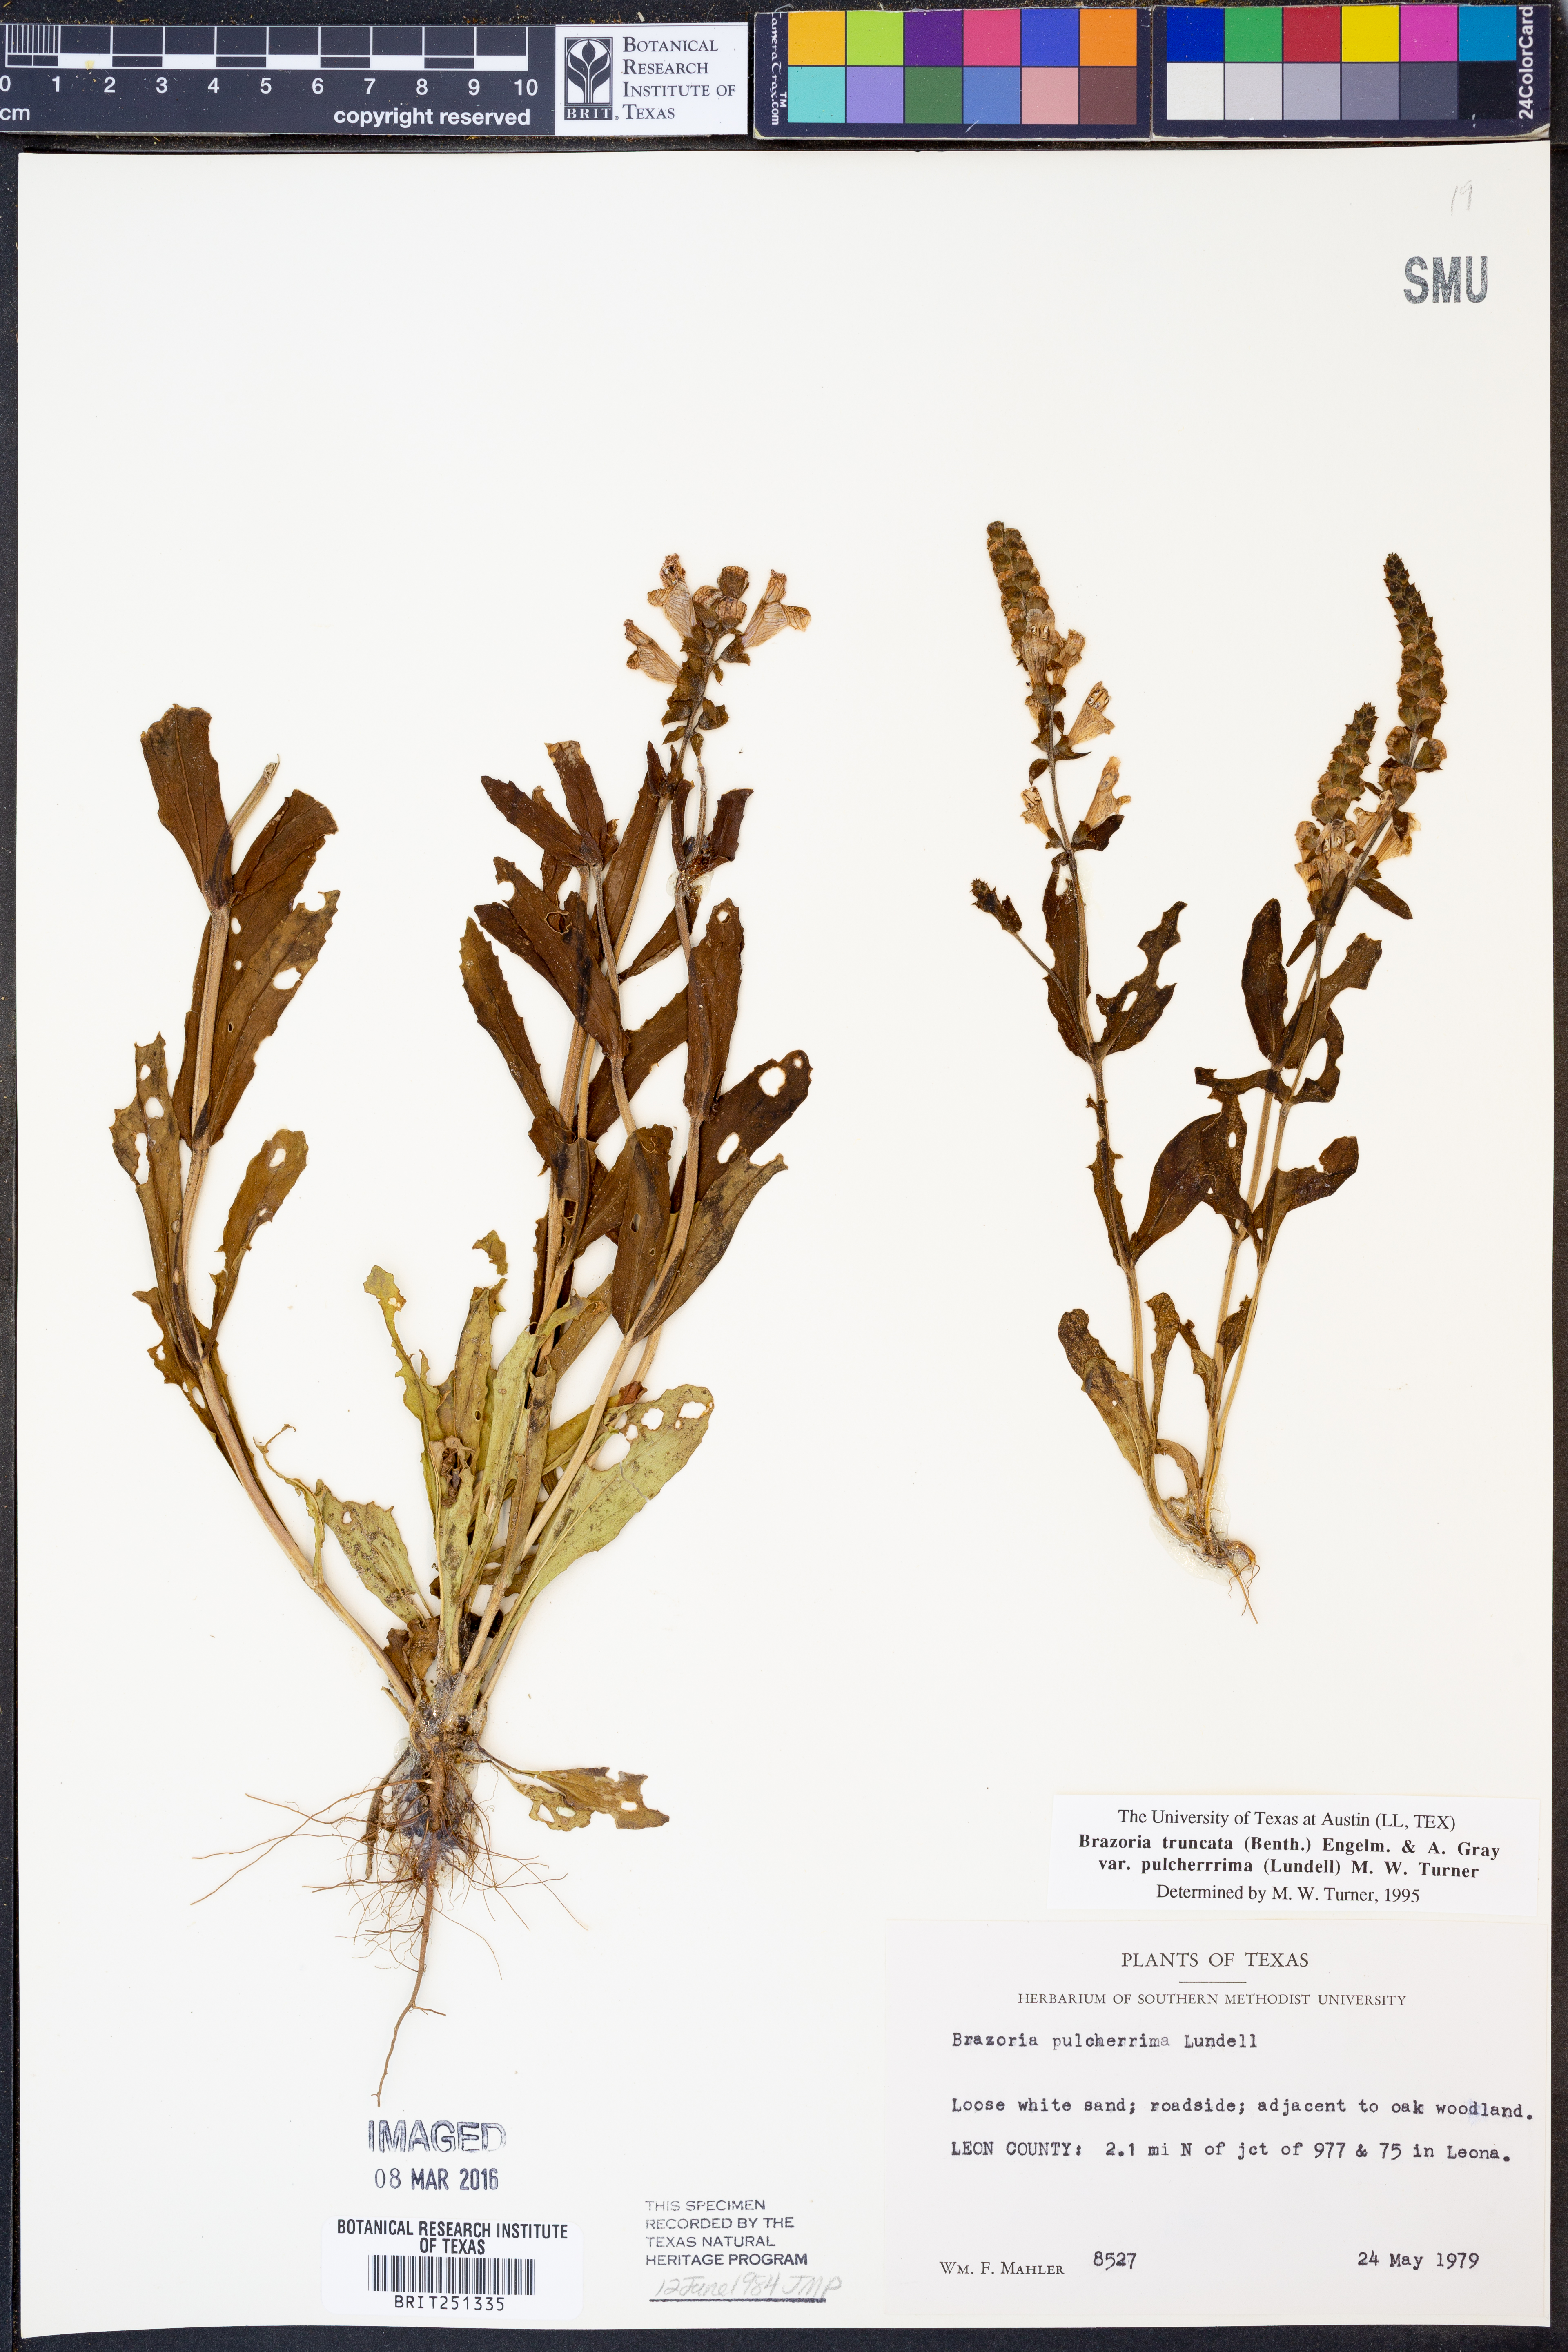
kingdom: Plantae
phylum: Tracheophyta
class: Magnoliopsida
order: Lamiales
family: Lamiaceae
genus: Brazoria
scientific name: Brazoria truncata
